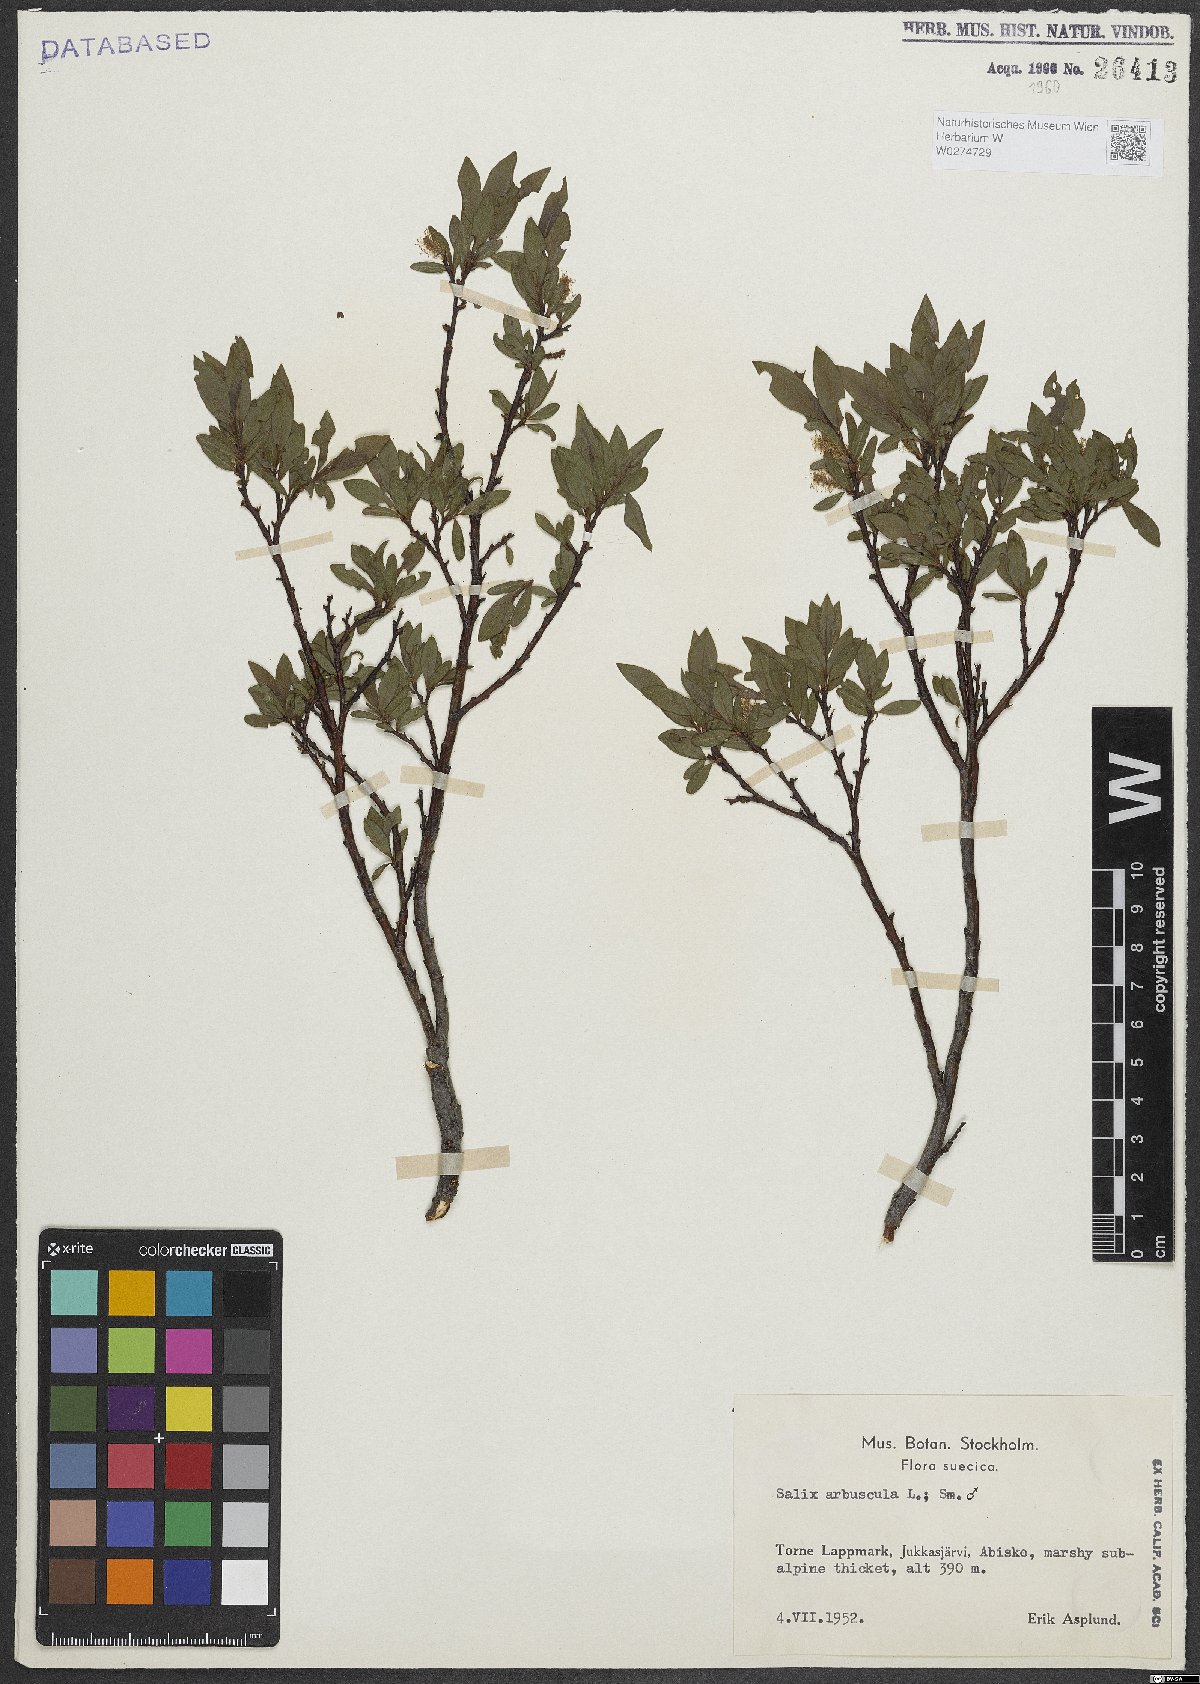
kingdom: Plantae
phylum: Tracheophyta
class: Magnoliopsida
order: Malpighiales
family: Salicaceae
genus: Salix
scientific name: Salix arbuscula
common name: Mountain willow
